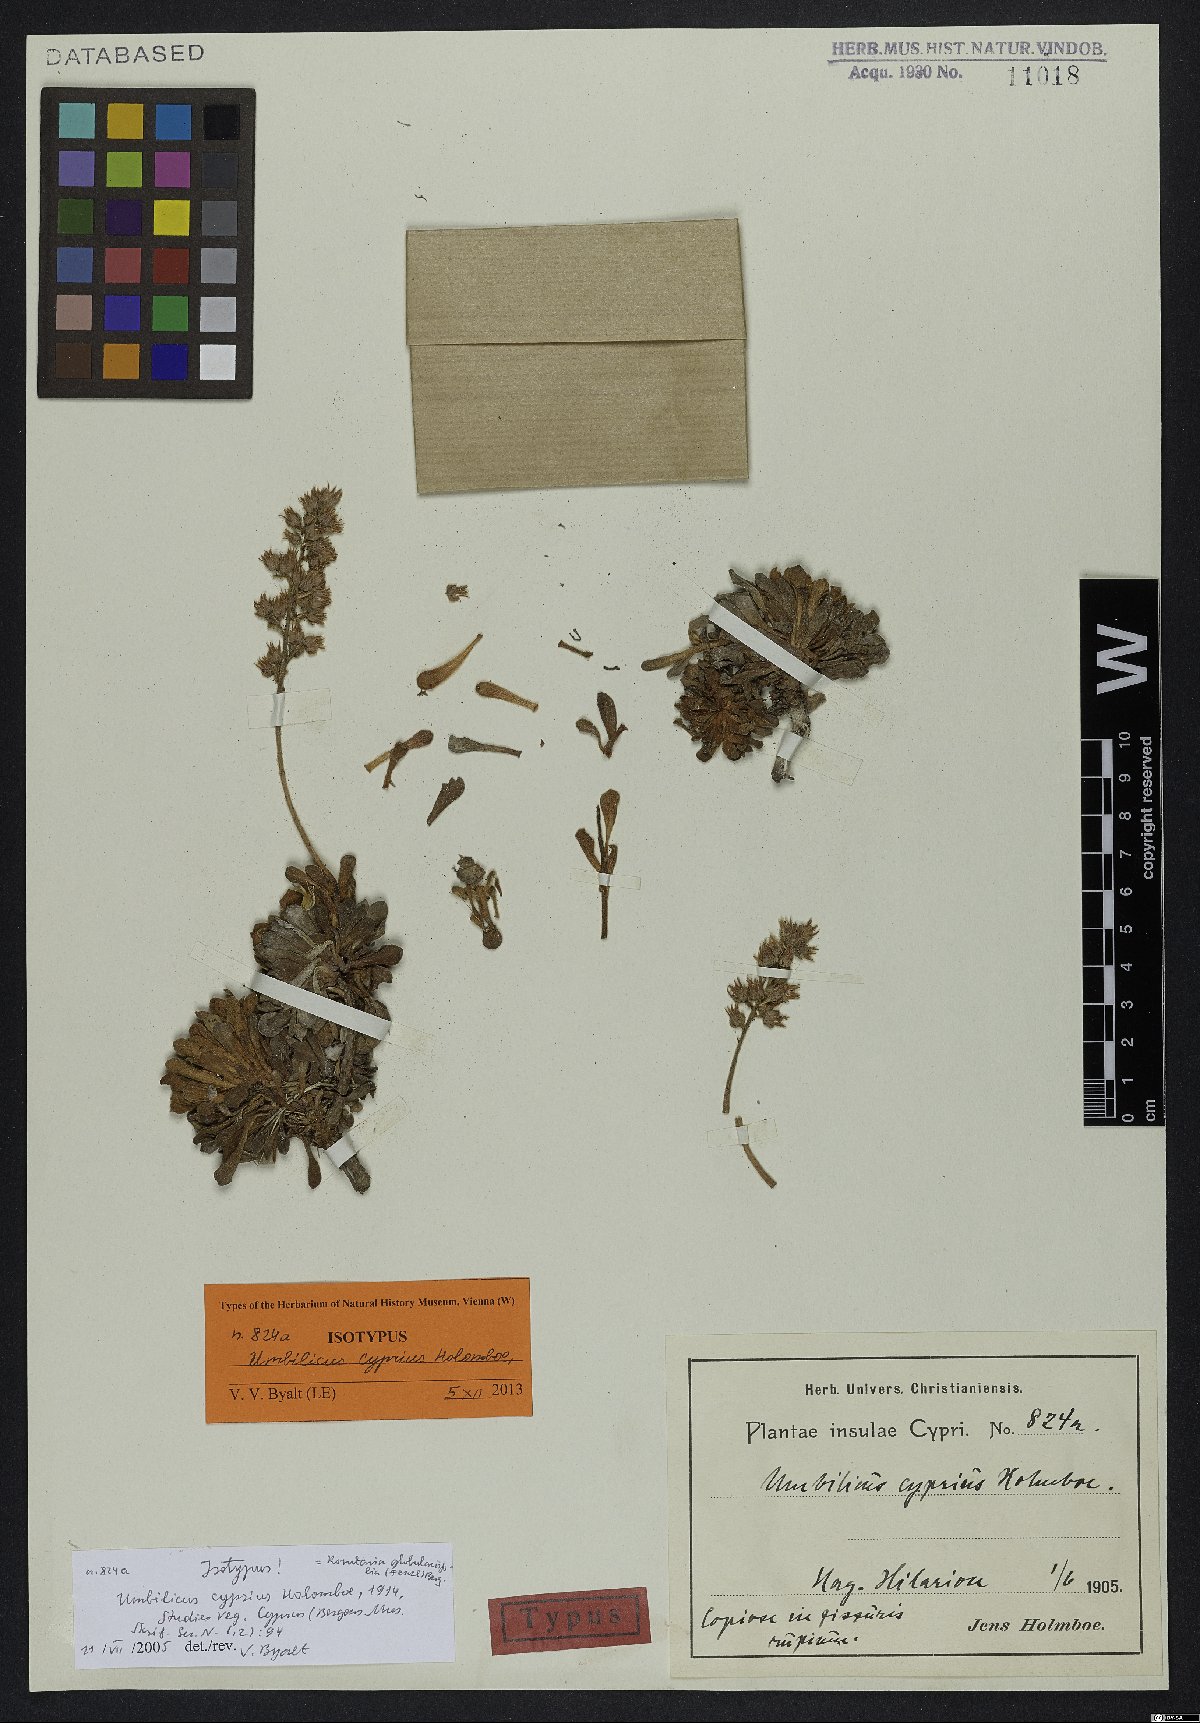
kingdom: Plantae
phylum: Tracheophyta
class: Magnoliopsida
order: Saxifragales
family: Crassulaceae
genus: Rosularia
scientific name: Rosularia globulariifolia
